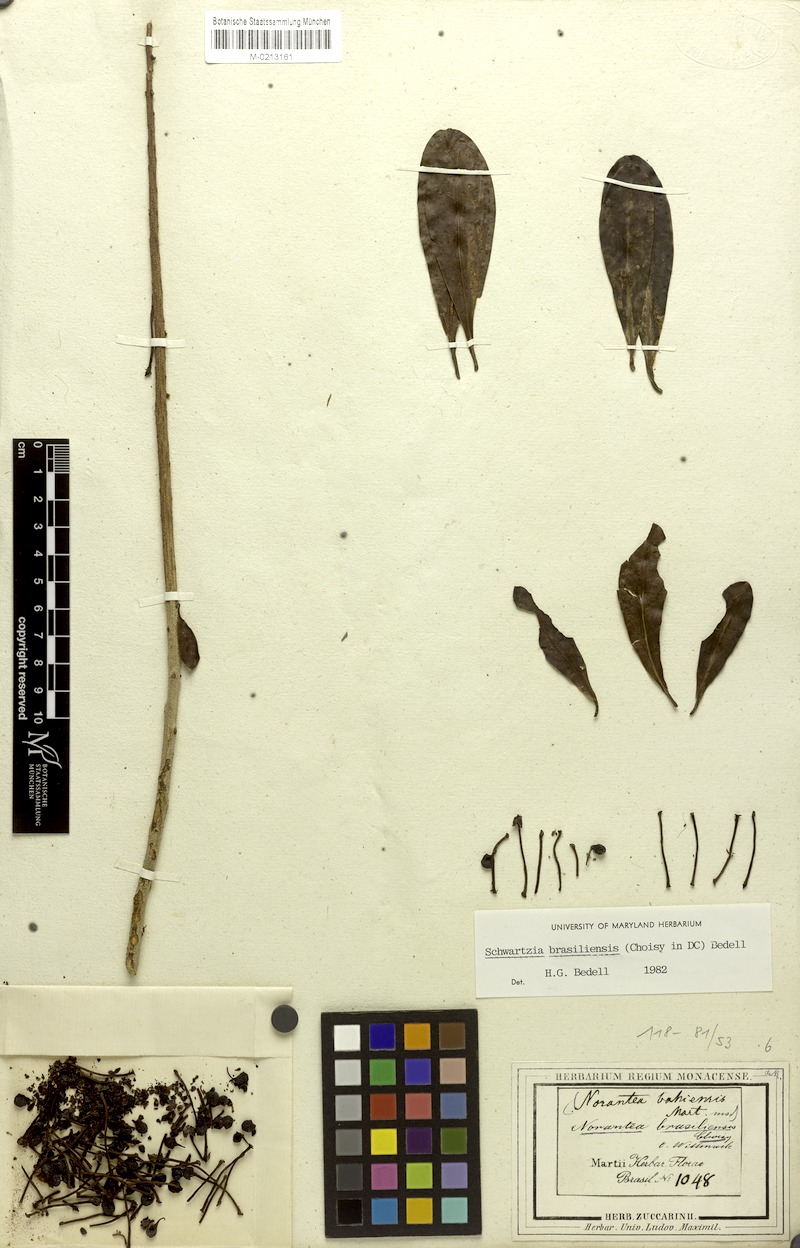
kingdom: Plantae
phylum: Tracheophyta
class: Magnoliopsida
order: Ericales
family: Marcgraviaceae
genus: Schwartzia
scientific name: Schwartzia brasiliensis
